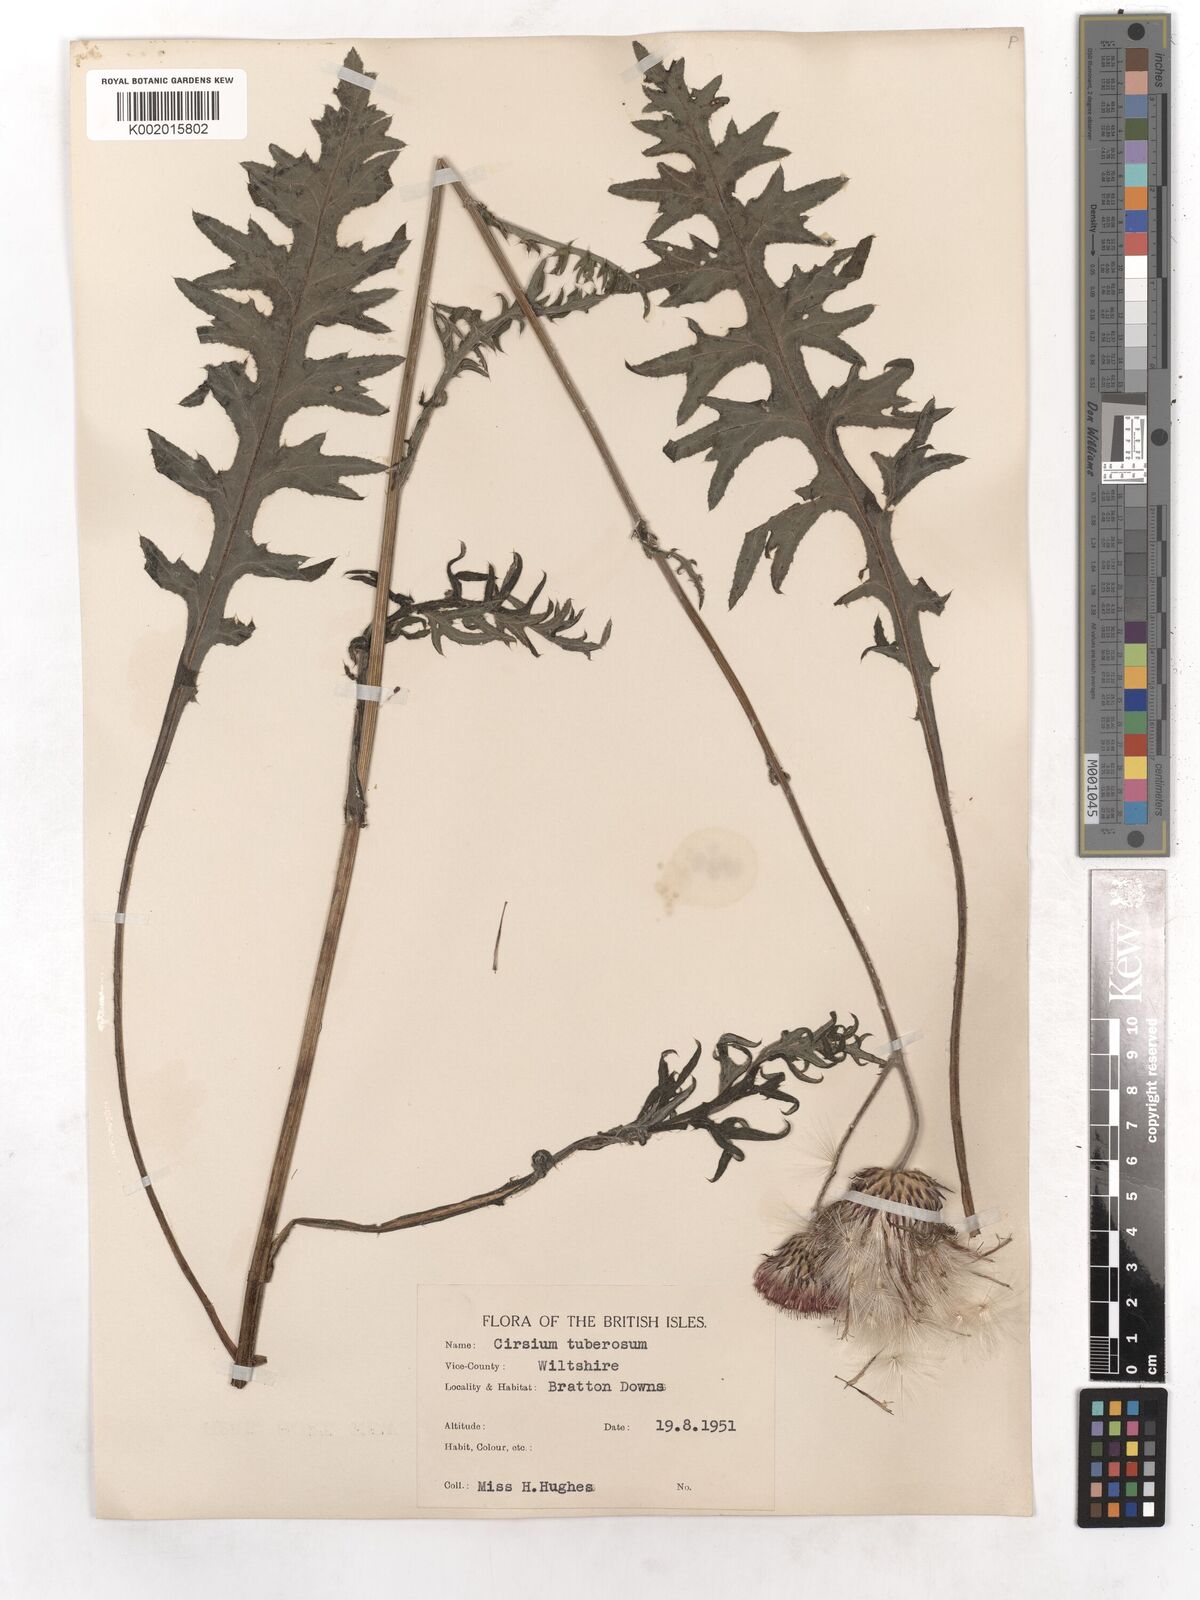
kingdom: Plantae
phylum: Tracheophyta
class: Magnoliopsida
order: Asterales
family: Asteraceae
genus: Cirsium
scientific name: Cirsium tuberosum
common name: Tuberous thistle
